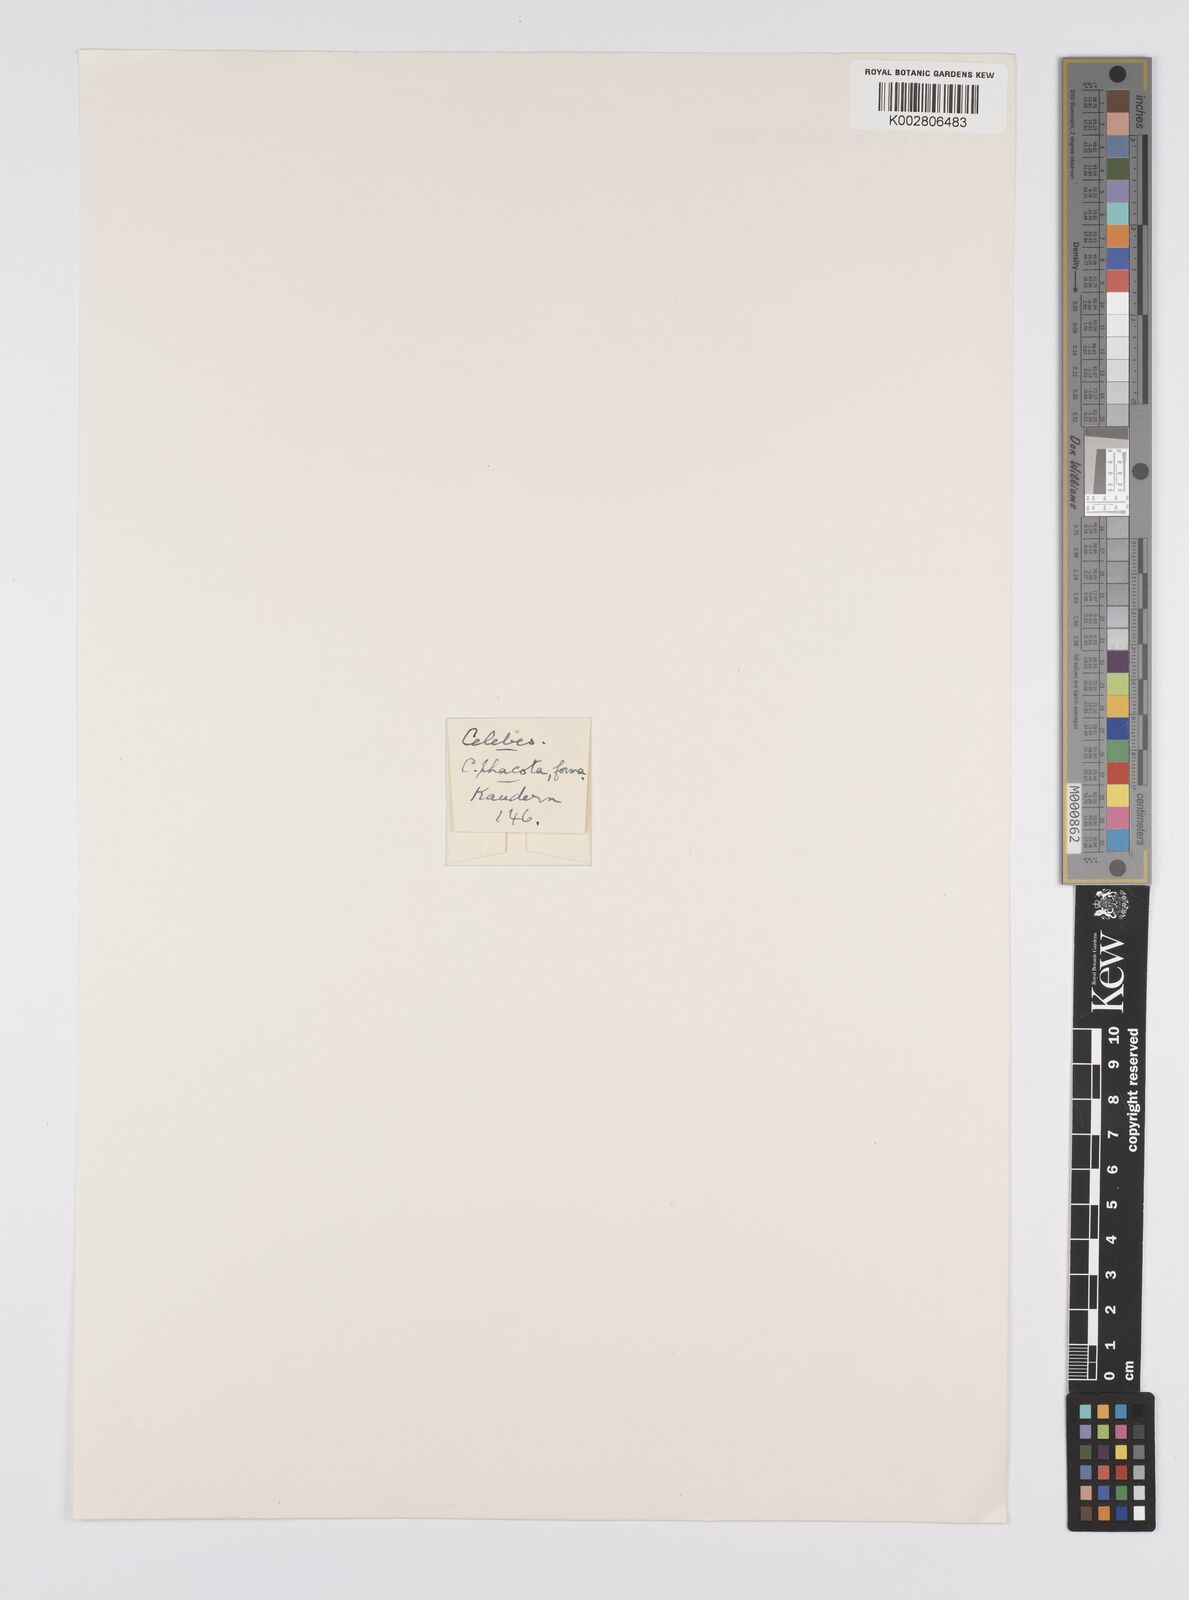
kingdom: Plantae
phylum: Tracheophyta
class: Liliopsida
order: Poales
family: Cyperaceae
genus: Carex
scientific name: Carex phacota
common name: Lakeshore sedge
